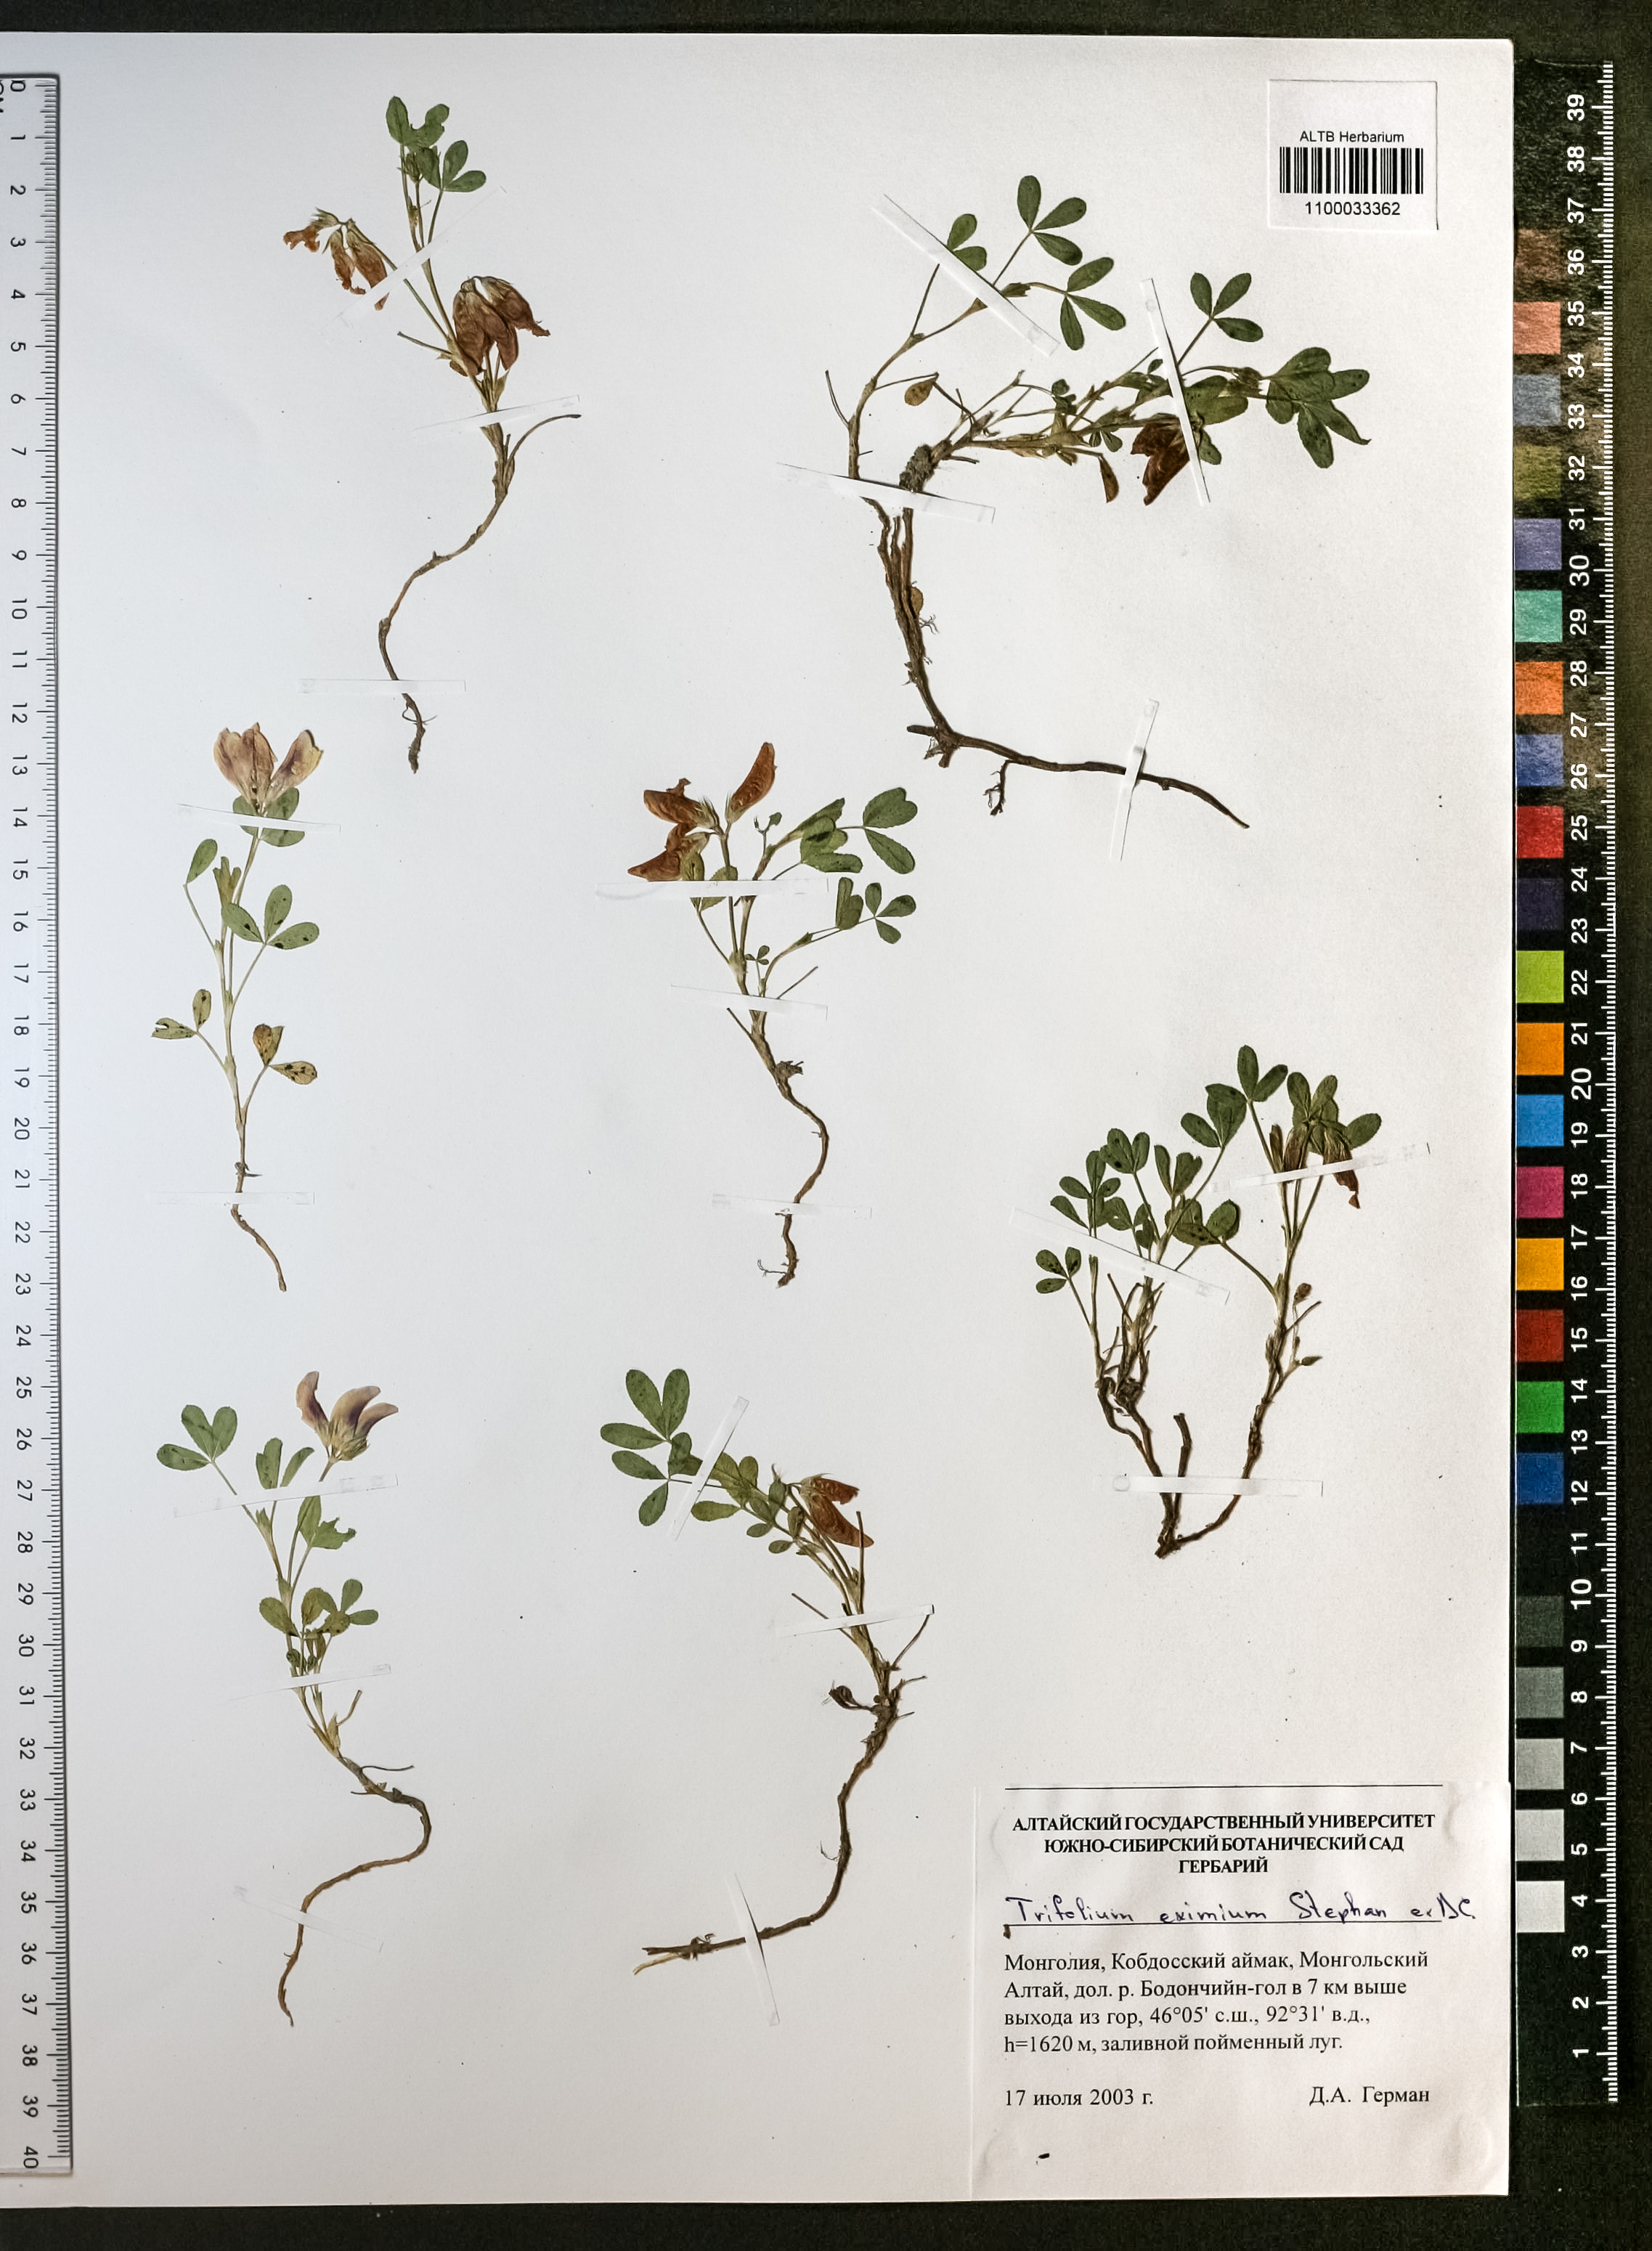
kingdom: Plantae
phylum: Tracheophyta
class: Magnoliopsida
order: Fabales
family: Fabaceae
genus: Trifolium
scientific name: Trifolium eximium
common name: Excellent clover
